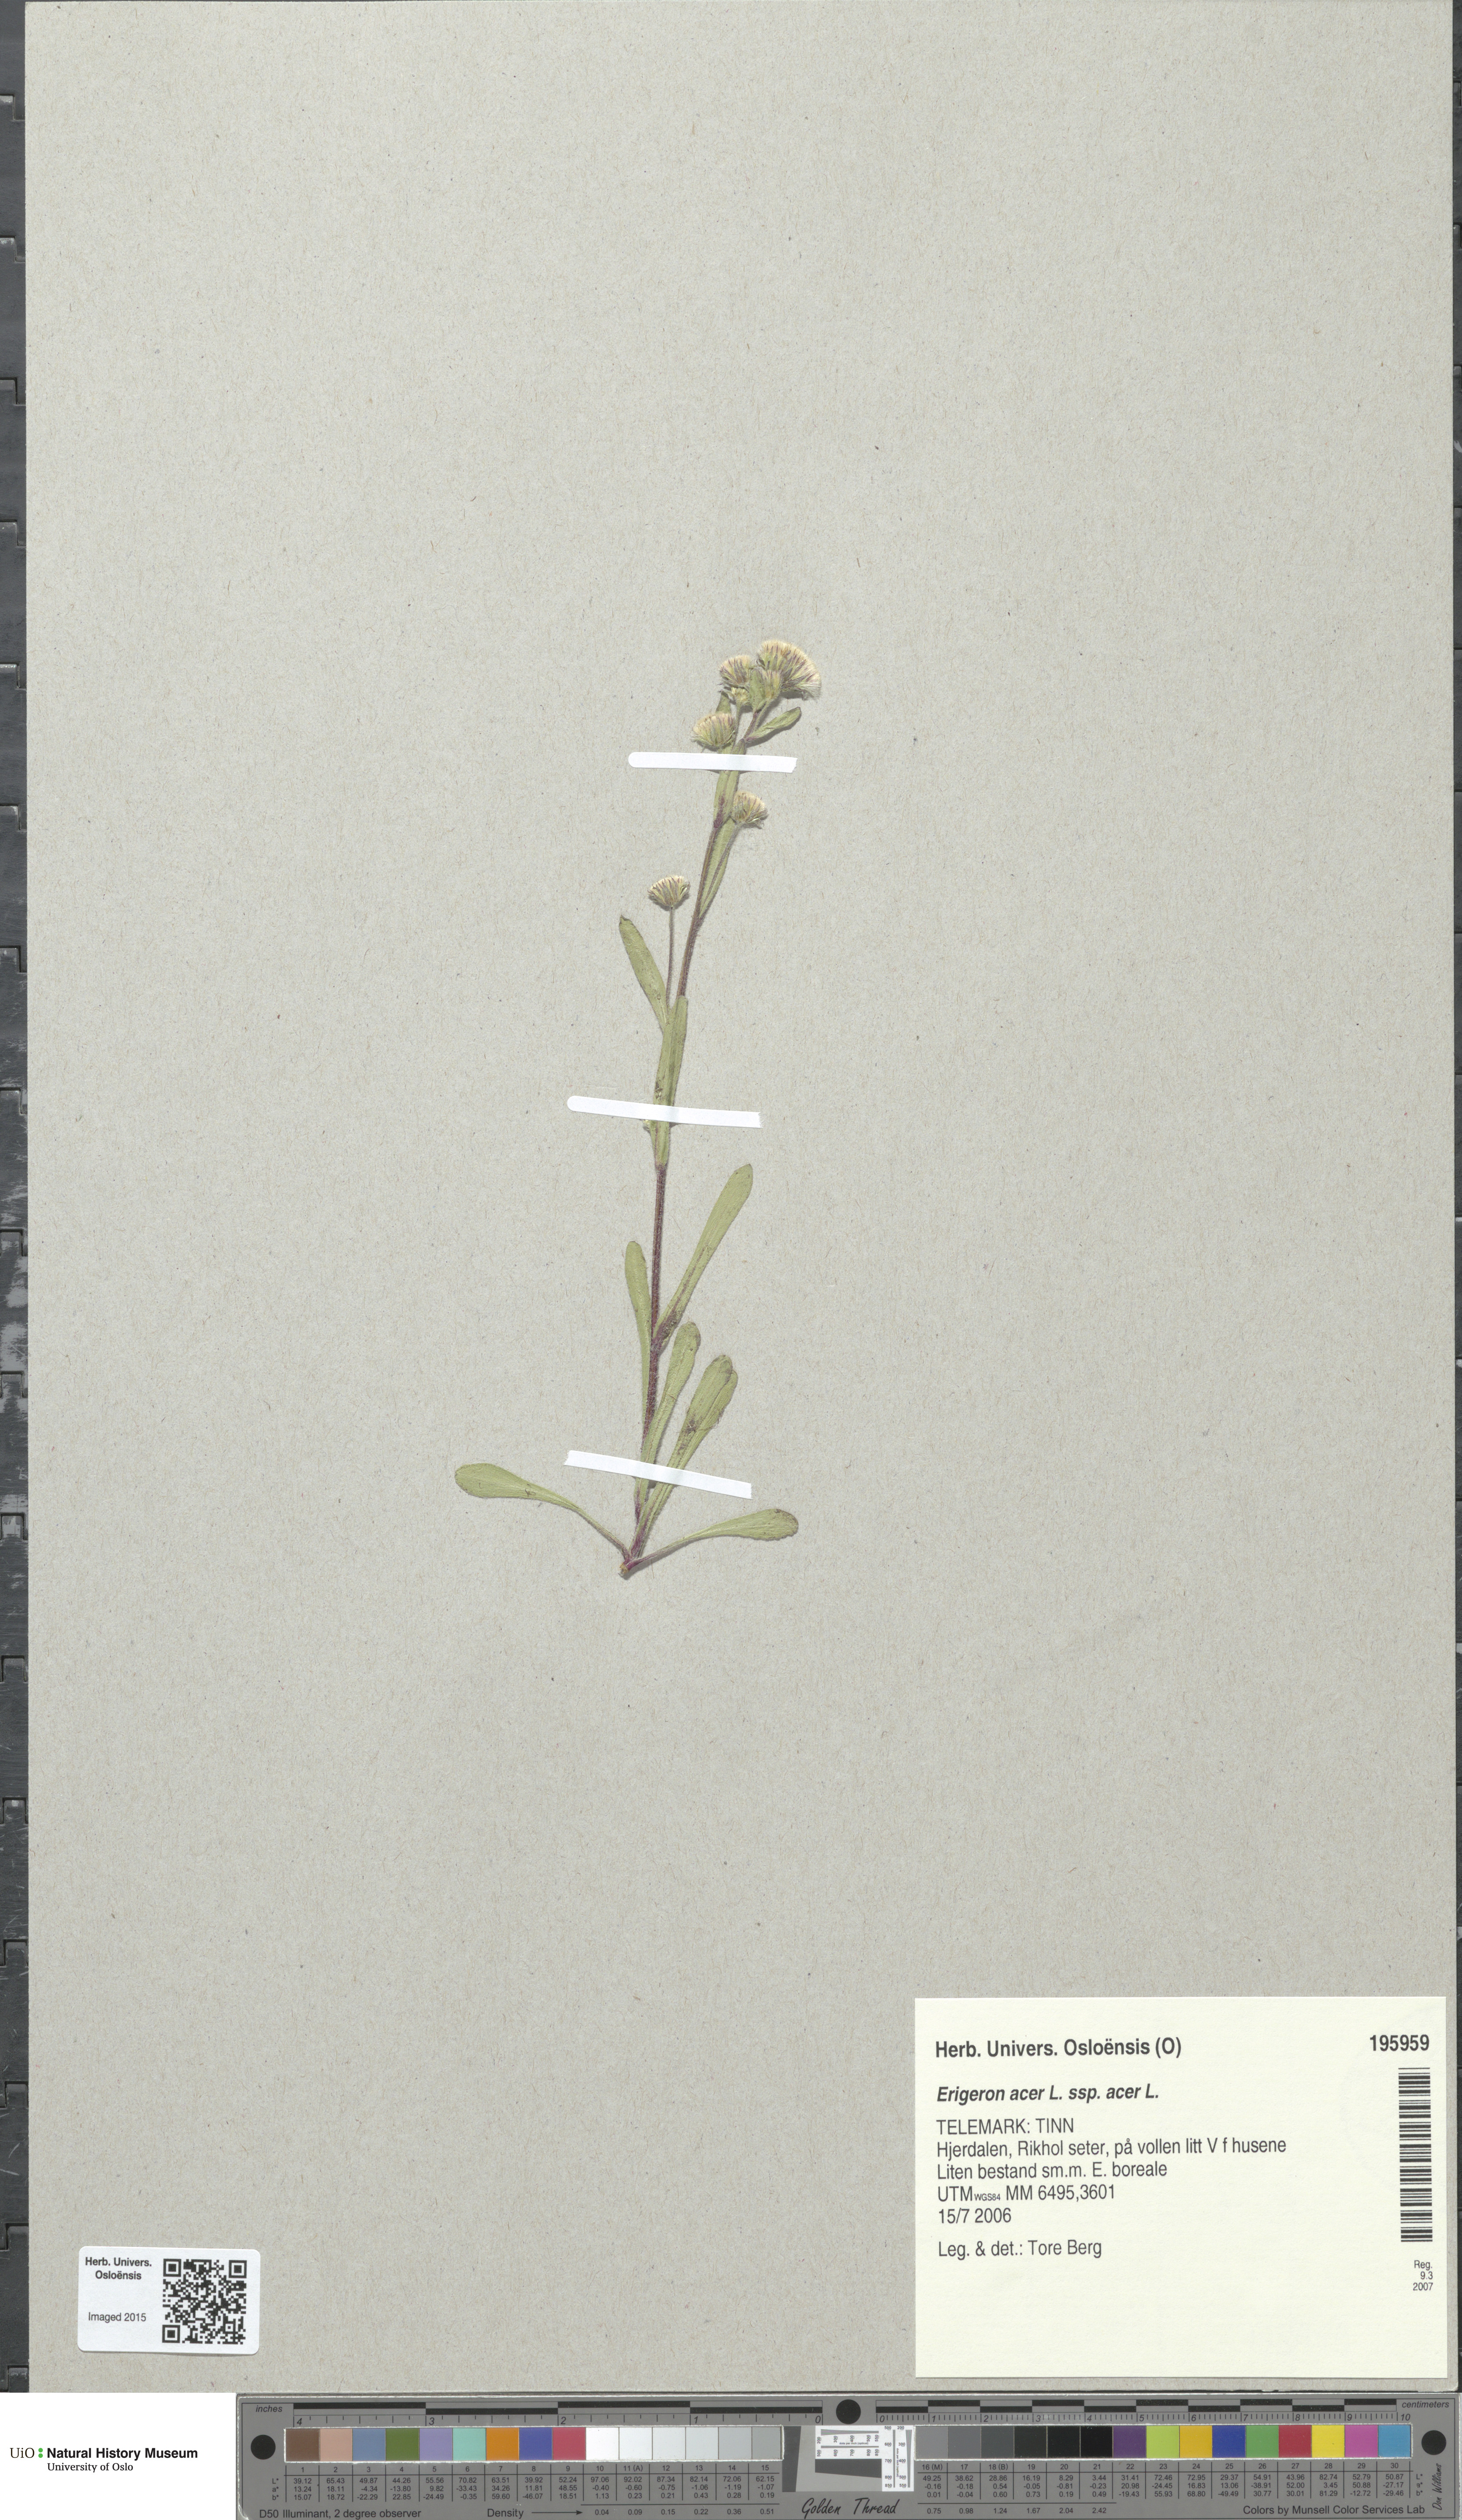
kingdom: Plantae
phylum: Tracheophyta
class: Magnoliopsida
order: Asterales
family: Asteraceae
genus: Erigeron
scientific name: Erigeron acris
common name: Blue fleabane
